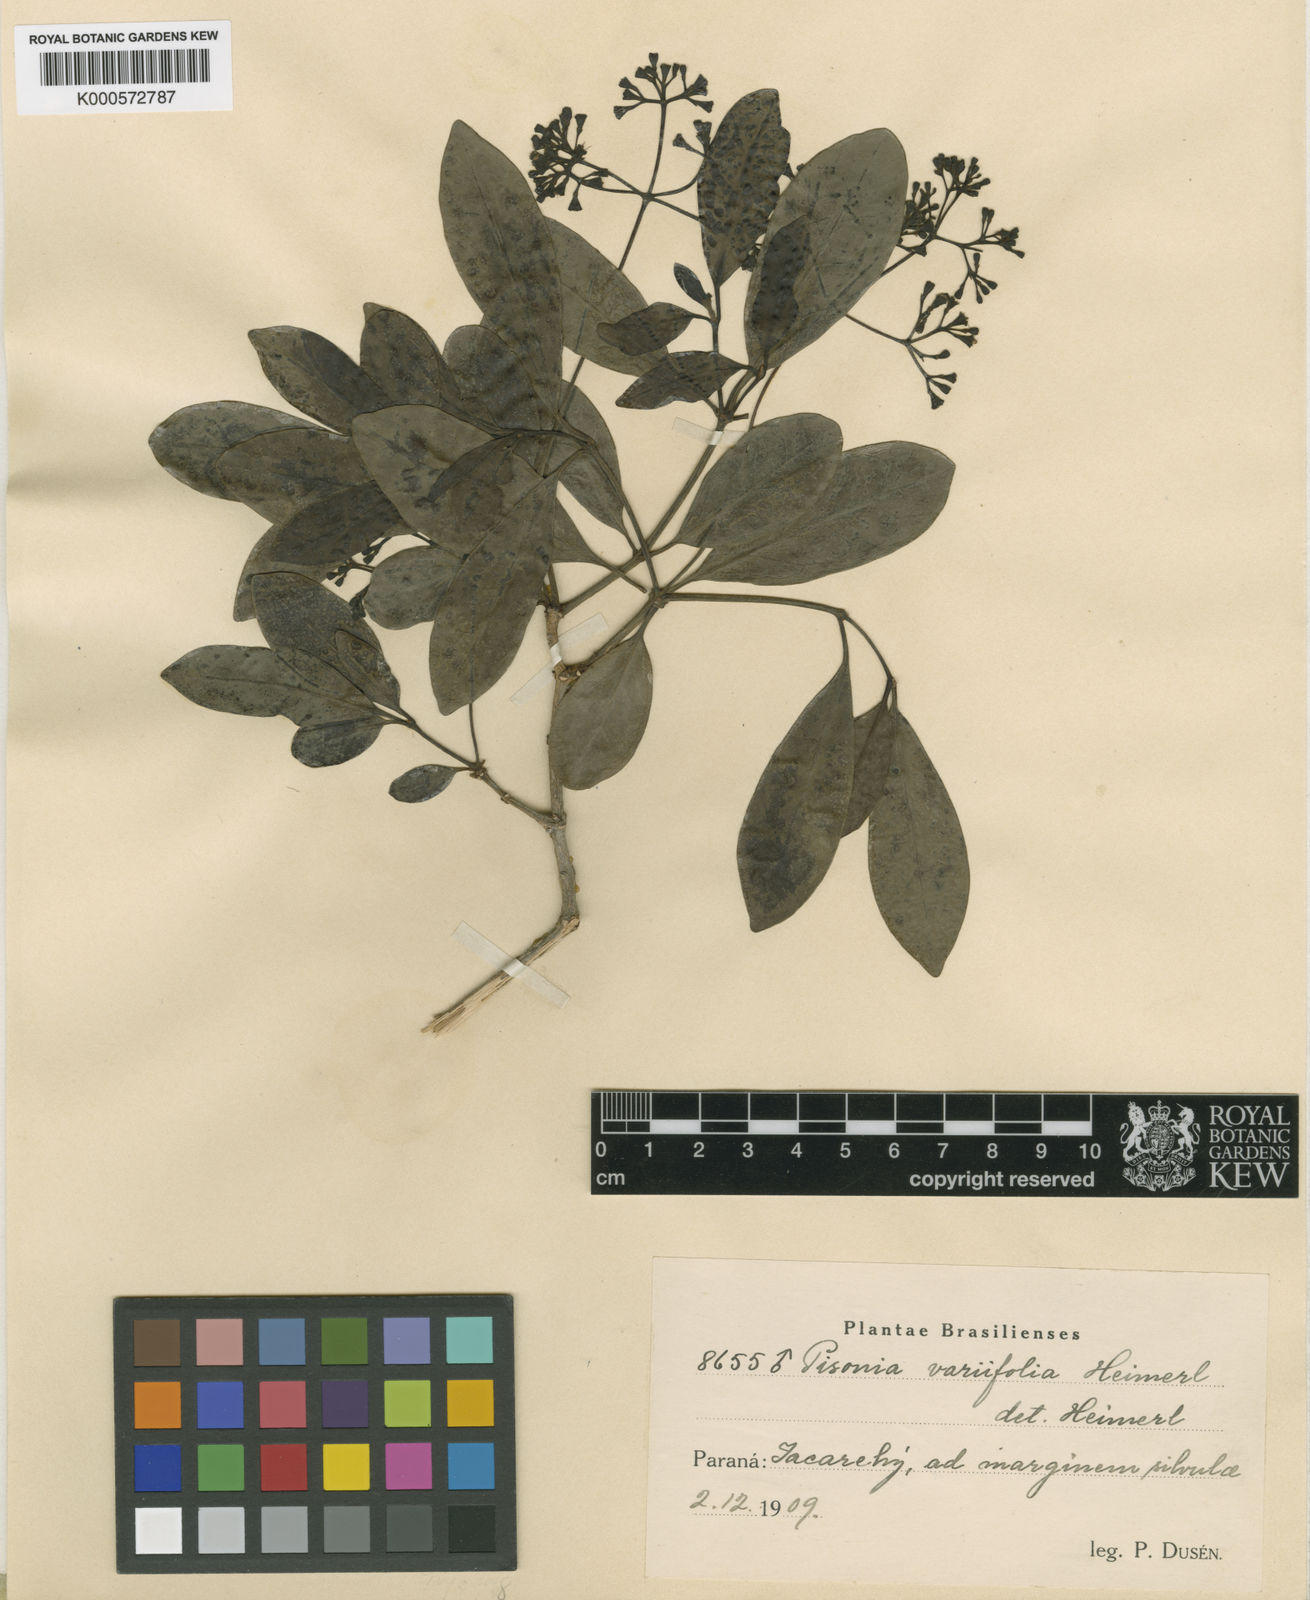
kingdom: Plantae
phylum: Tracheophyta
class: Magnoliopsida
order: Caryophyllales
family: Nyctaginaceae
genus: Guapira
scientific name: Guapira
